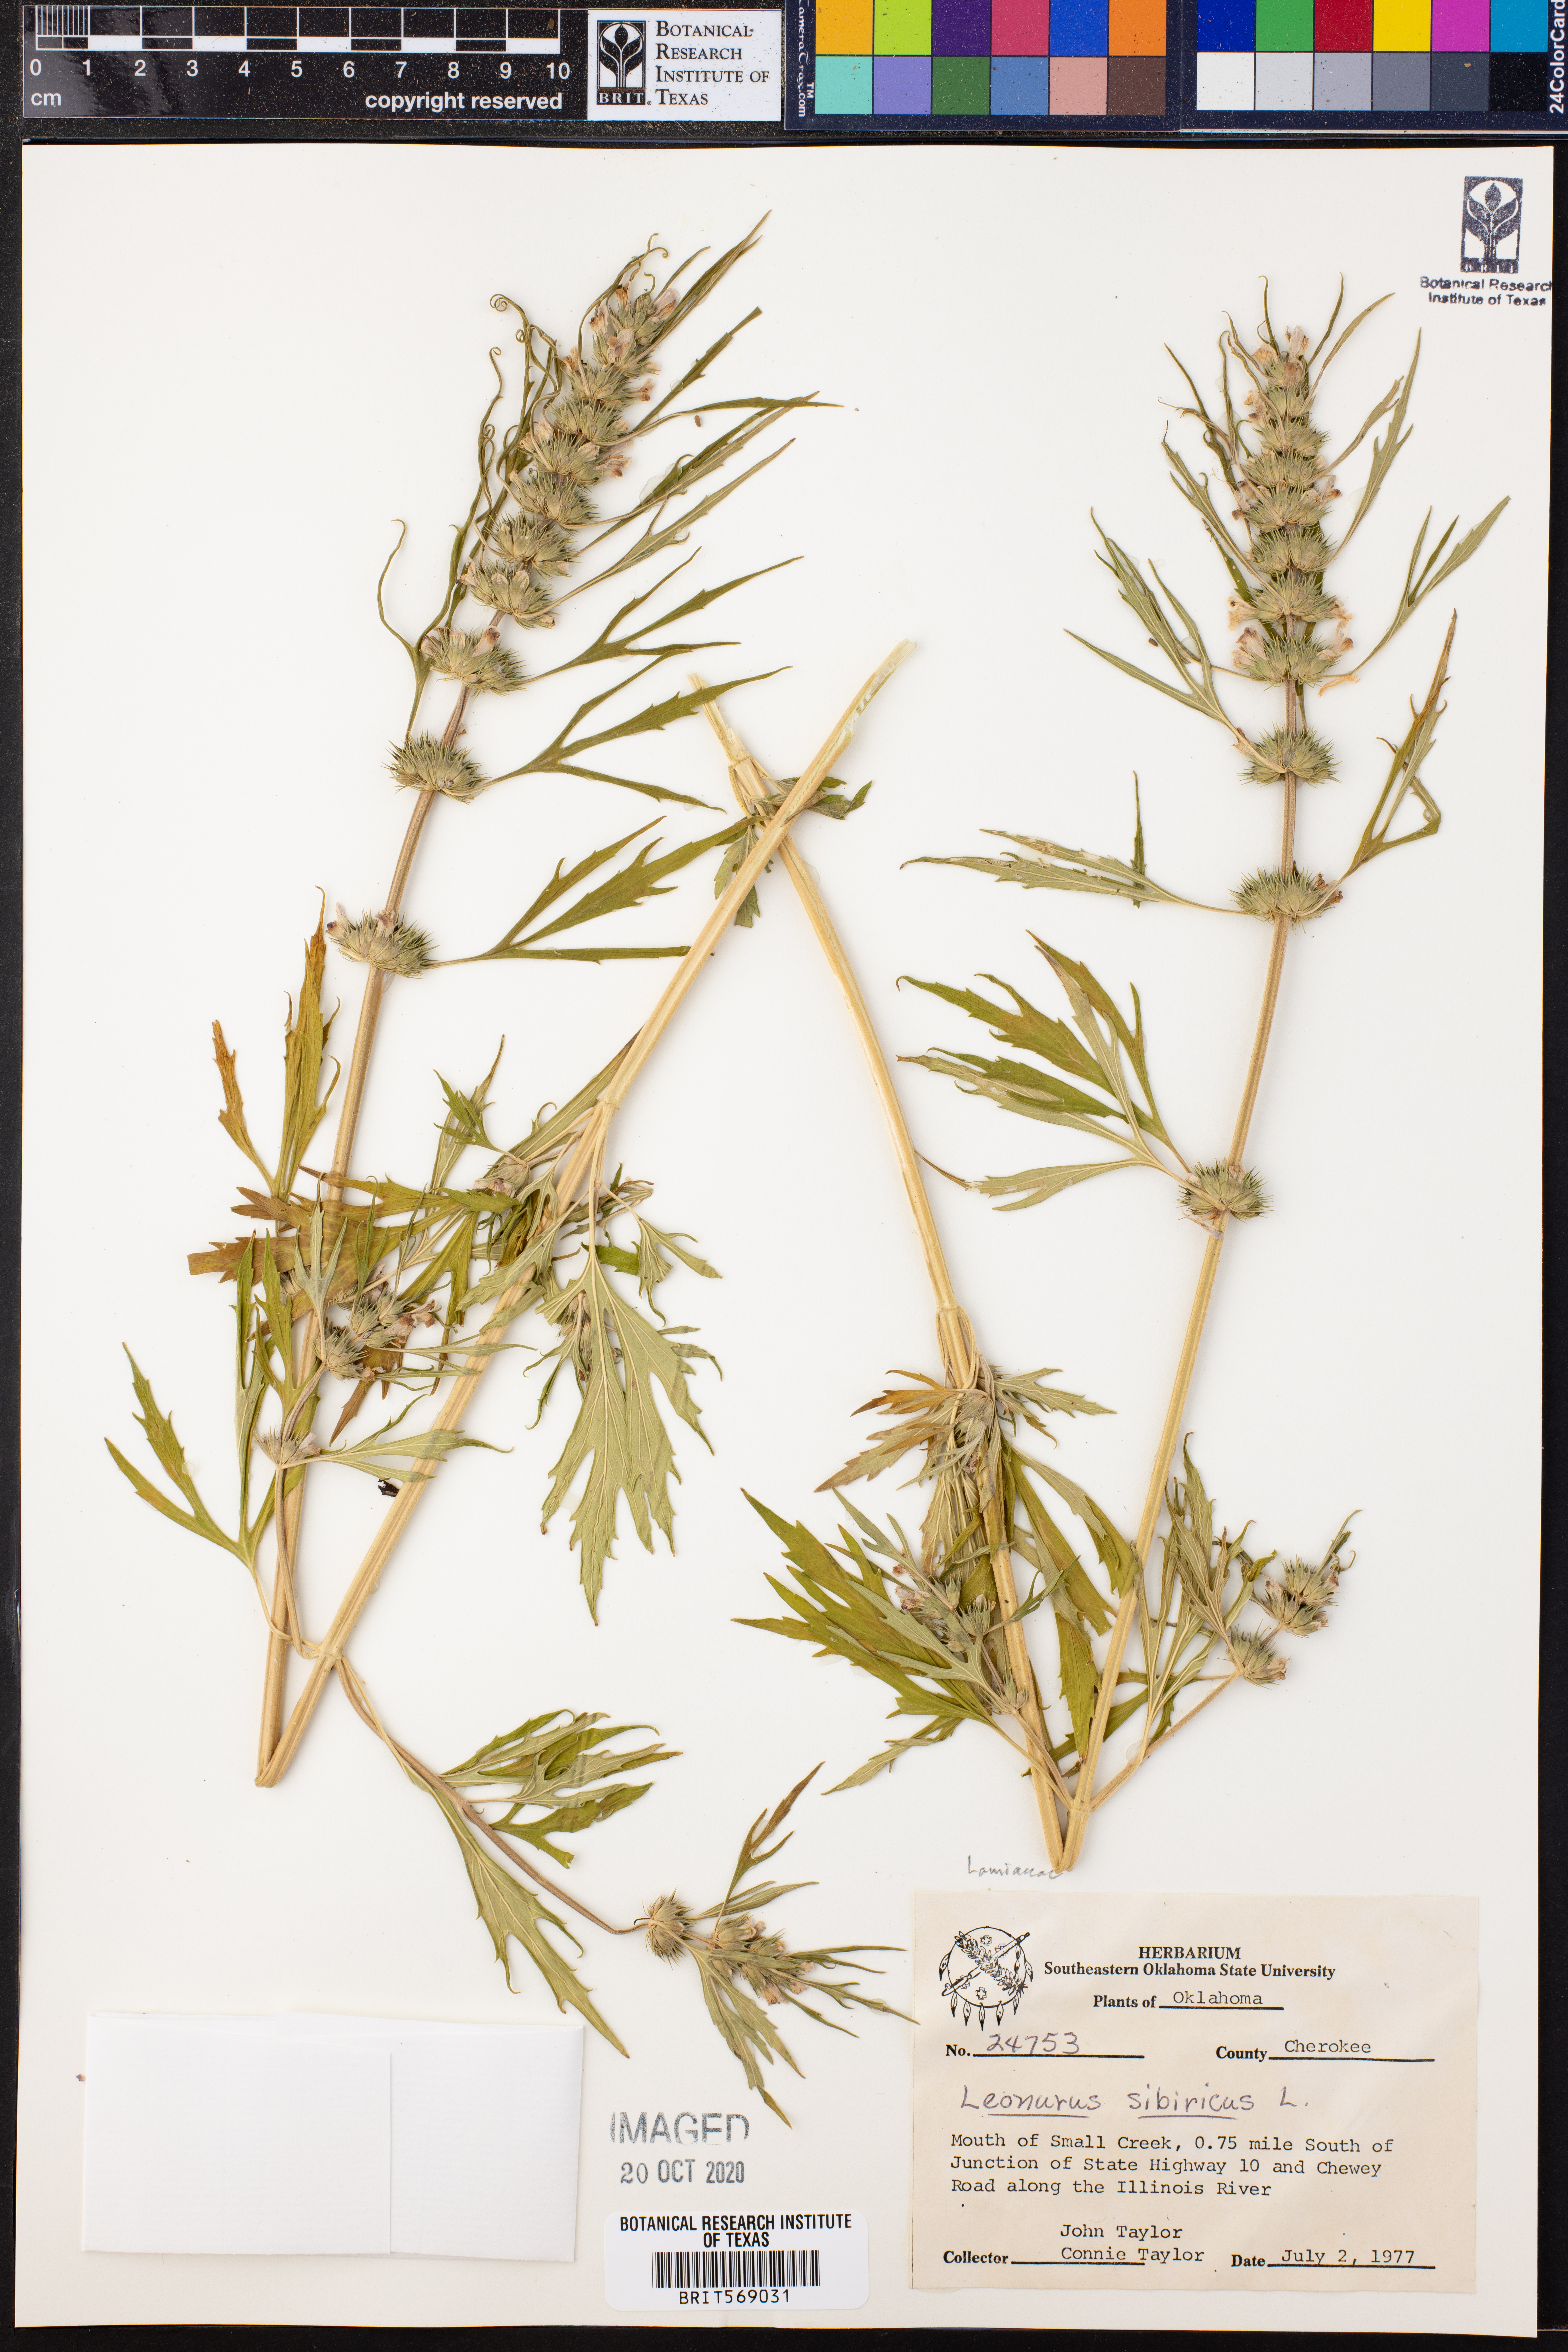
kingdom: Plantae
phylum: Tracheophyta
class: Magnoliopsida
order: Lamiales
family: Lamiaceae
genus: Leonurus
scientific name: Leonurus sibiricus
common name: Honeyweed
